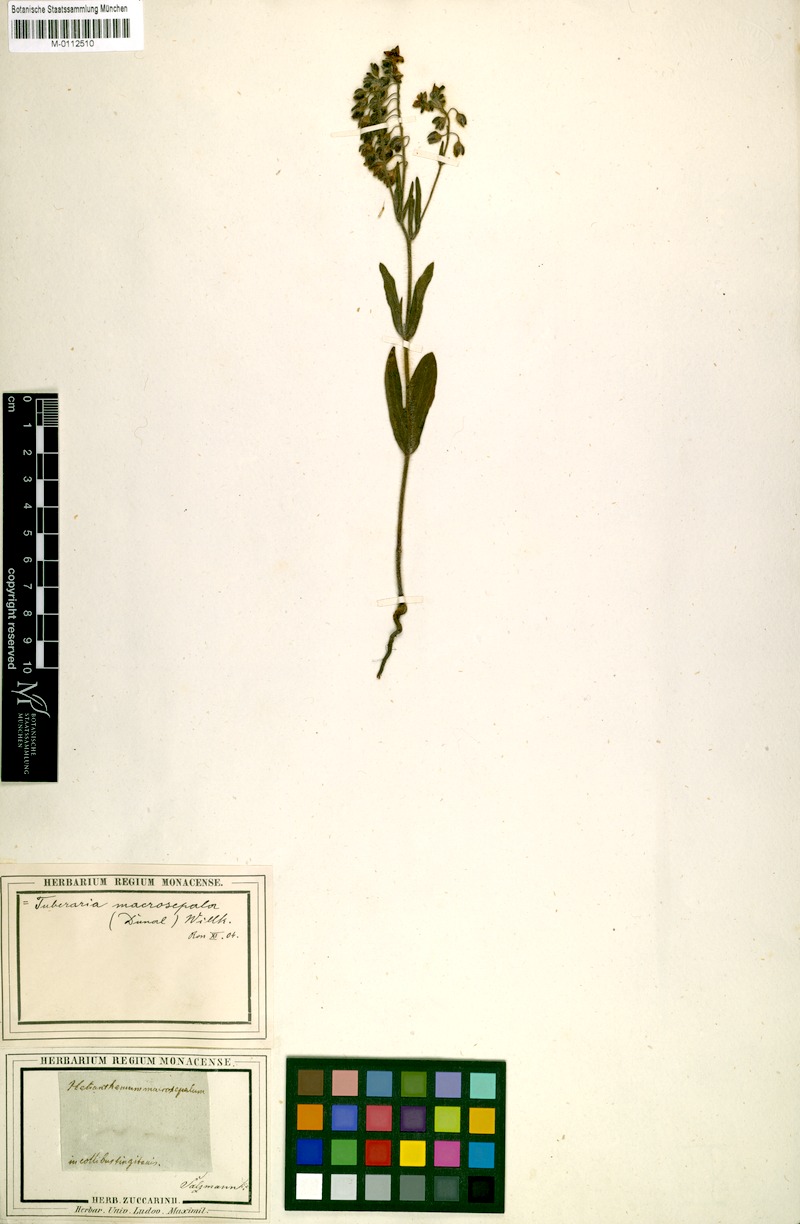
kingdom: Plantae
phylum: Tracheophyta
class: Magnoliopsida
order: Malvales
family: Cistaceae
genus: Tuberaria
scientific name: Tuberaria macrosepala
